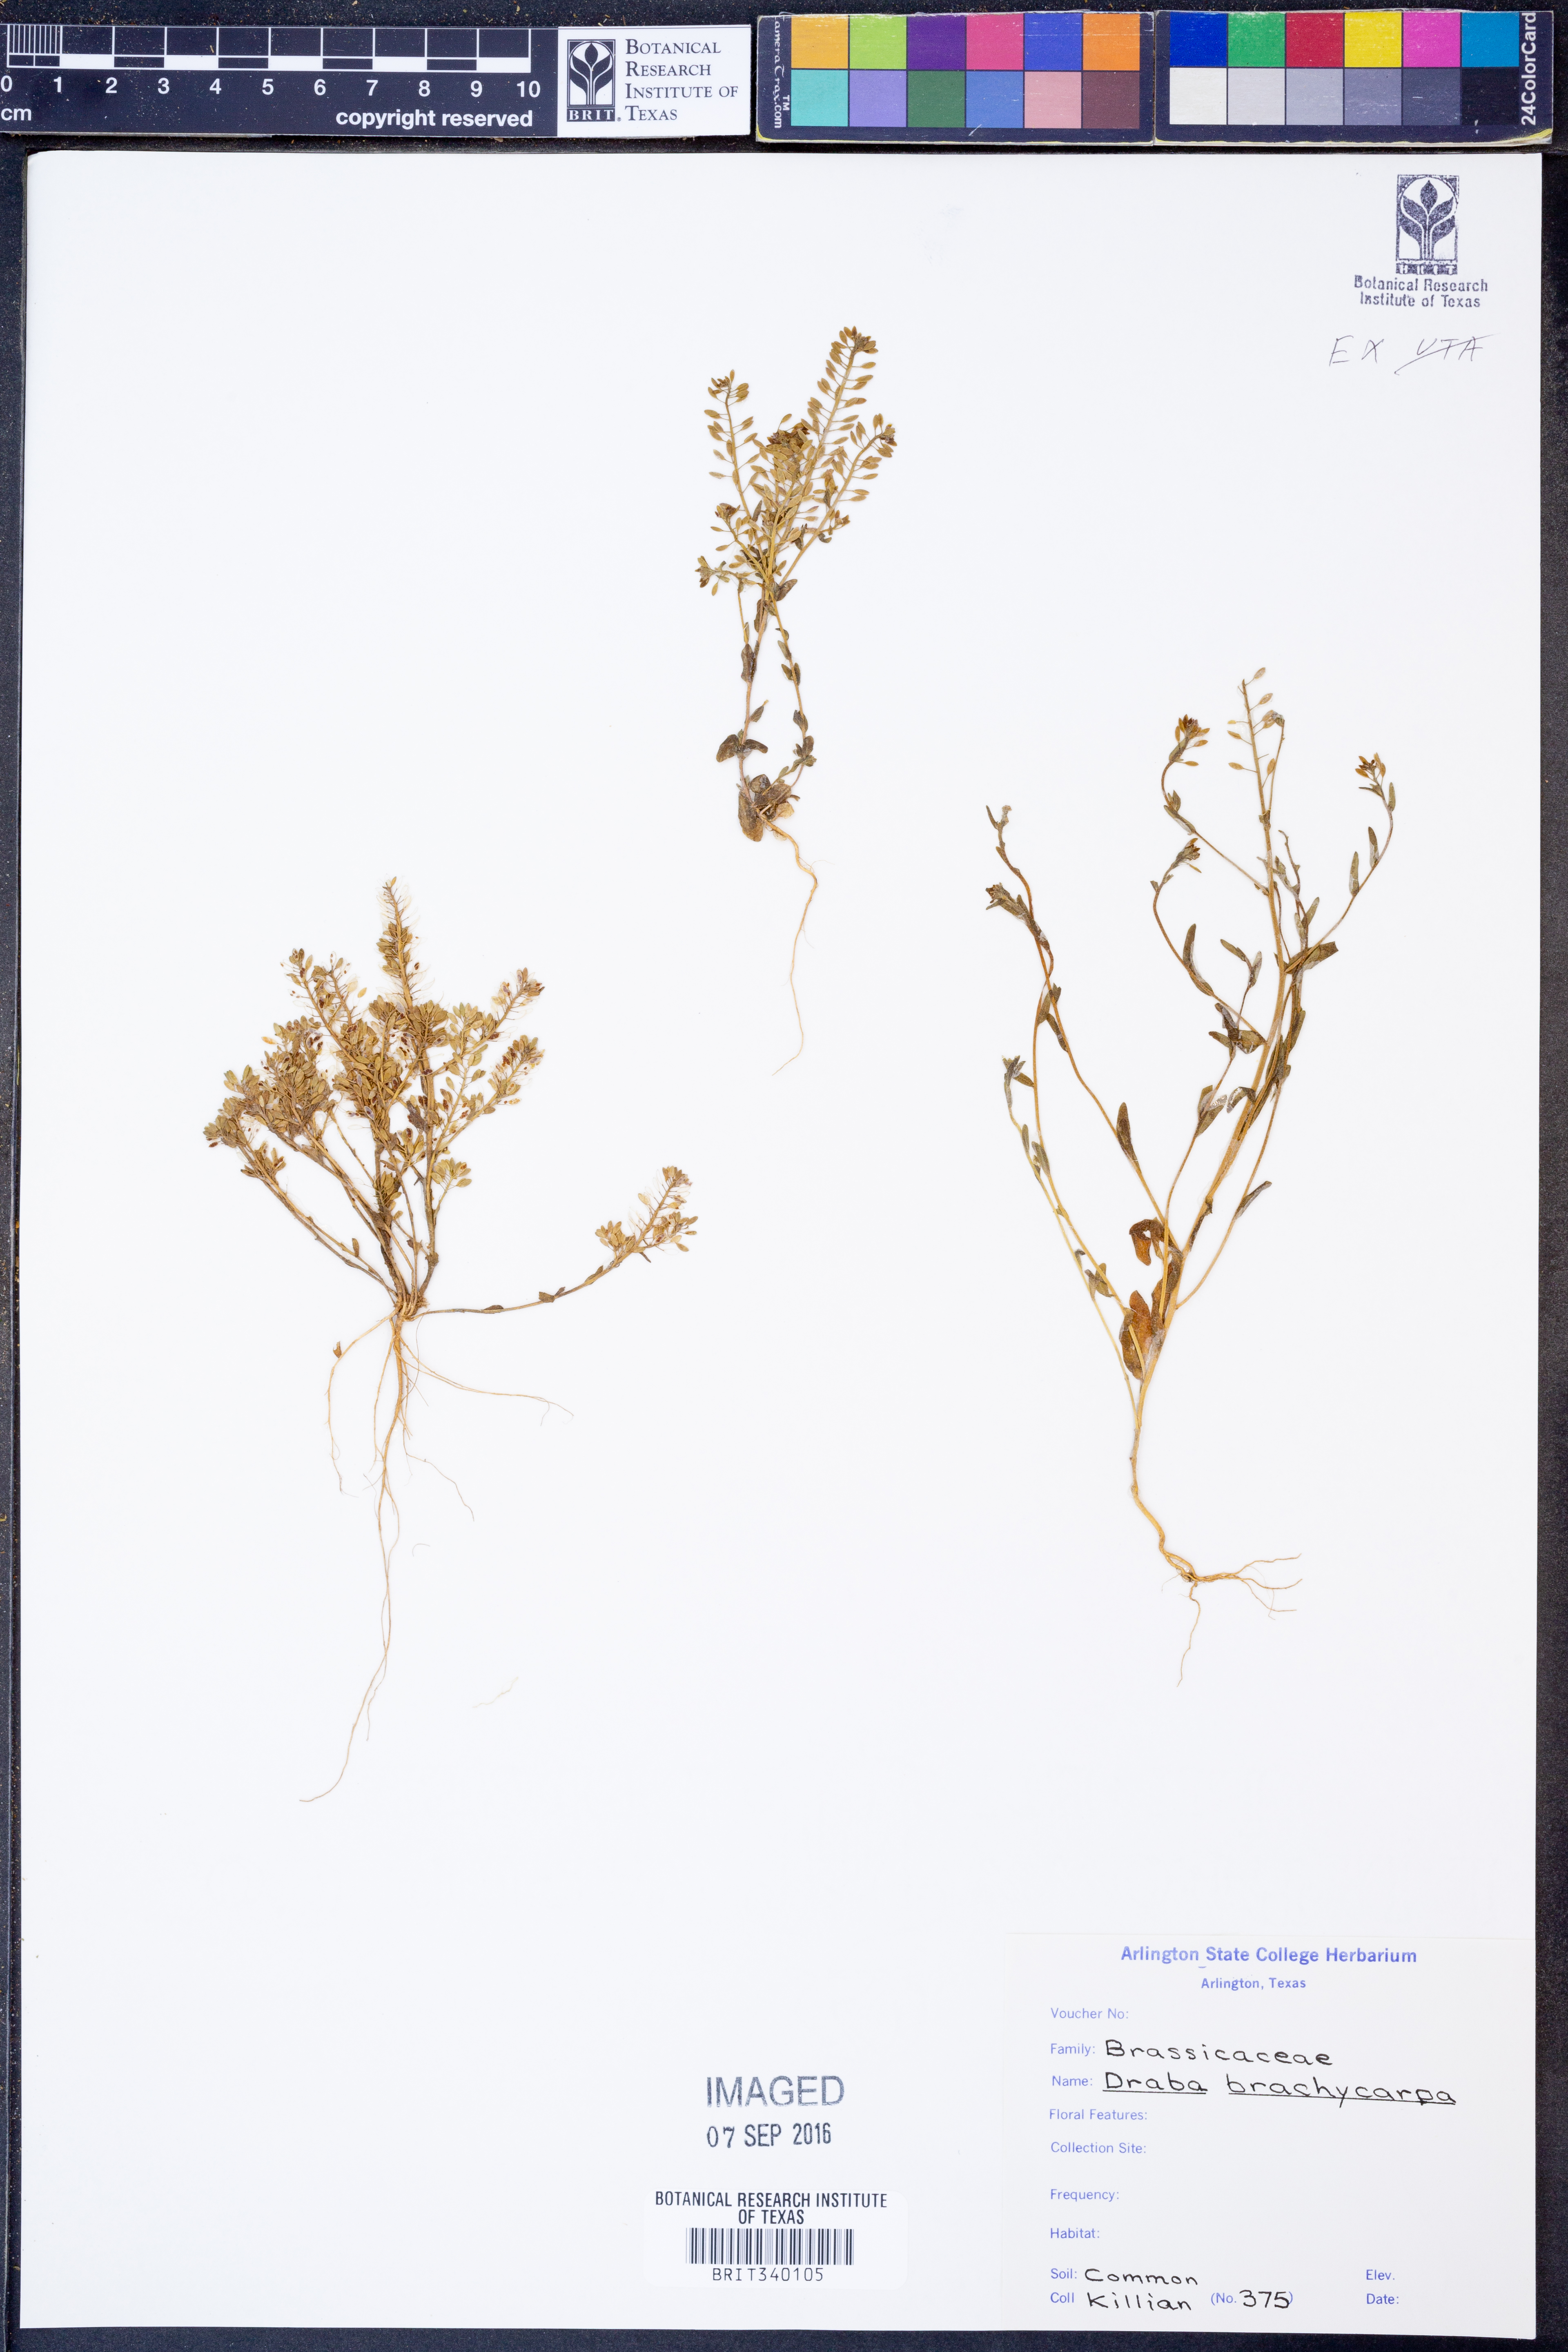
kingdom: Plantae
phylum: Tracheophyta
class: Magnoliopsida
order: Brassicales
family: Brassicaceae
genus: Abdra
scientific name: Abdra brachycarpa
